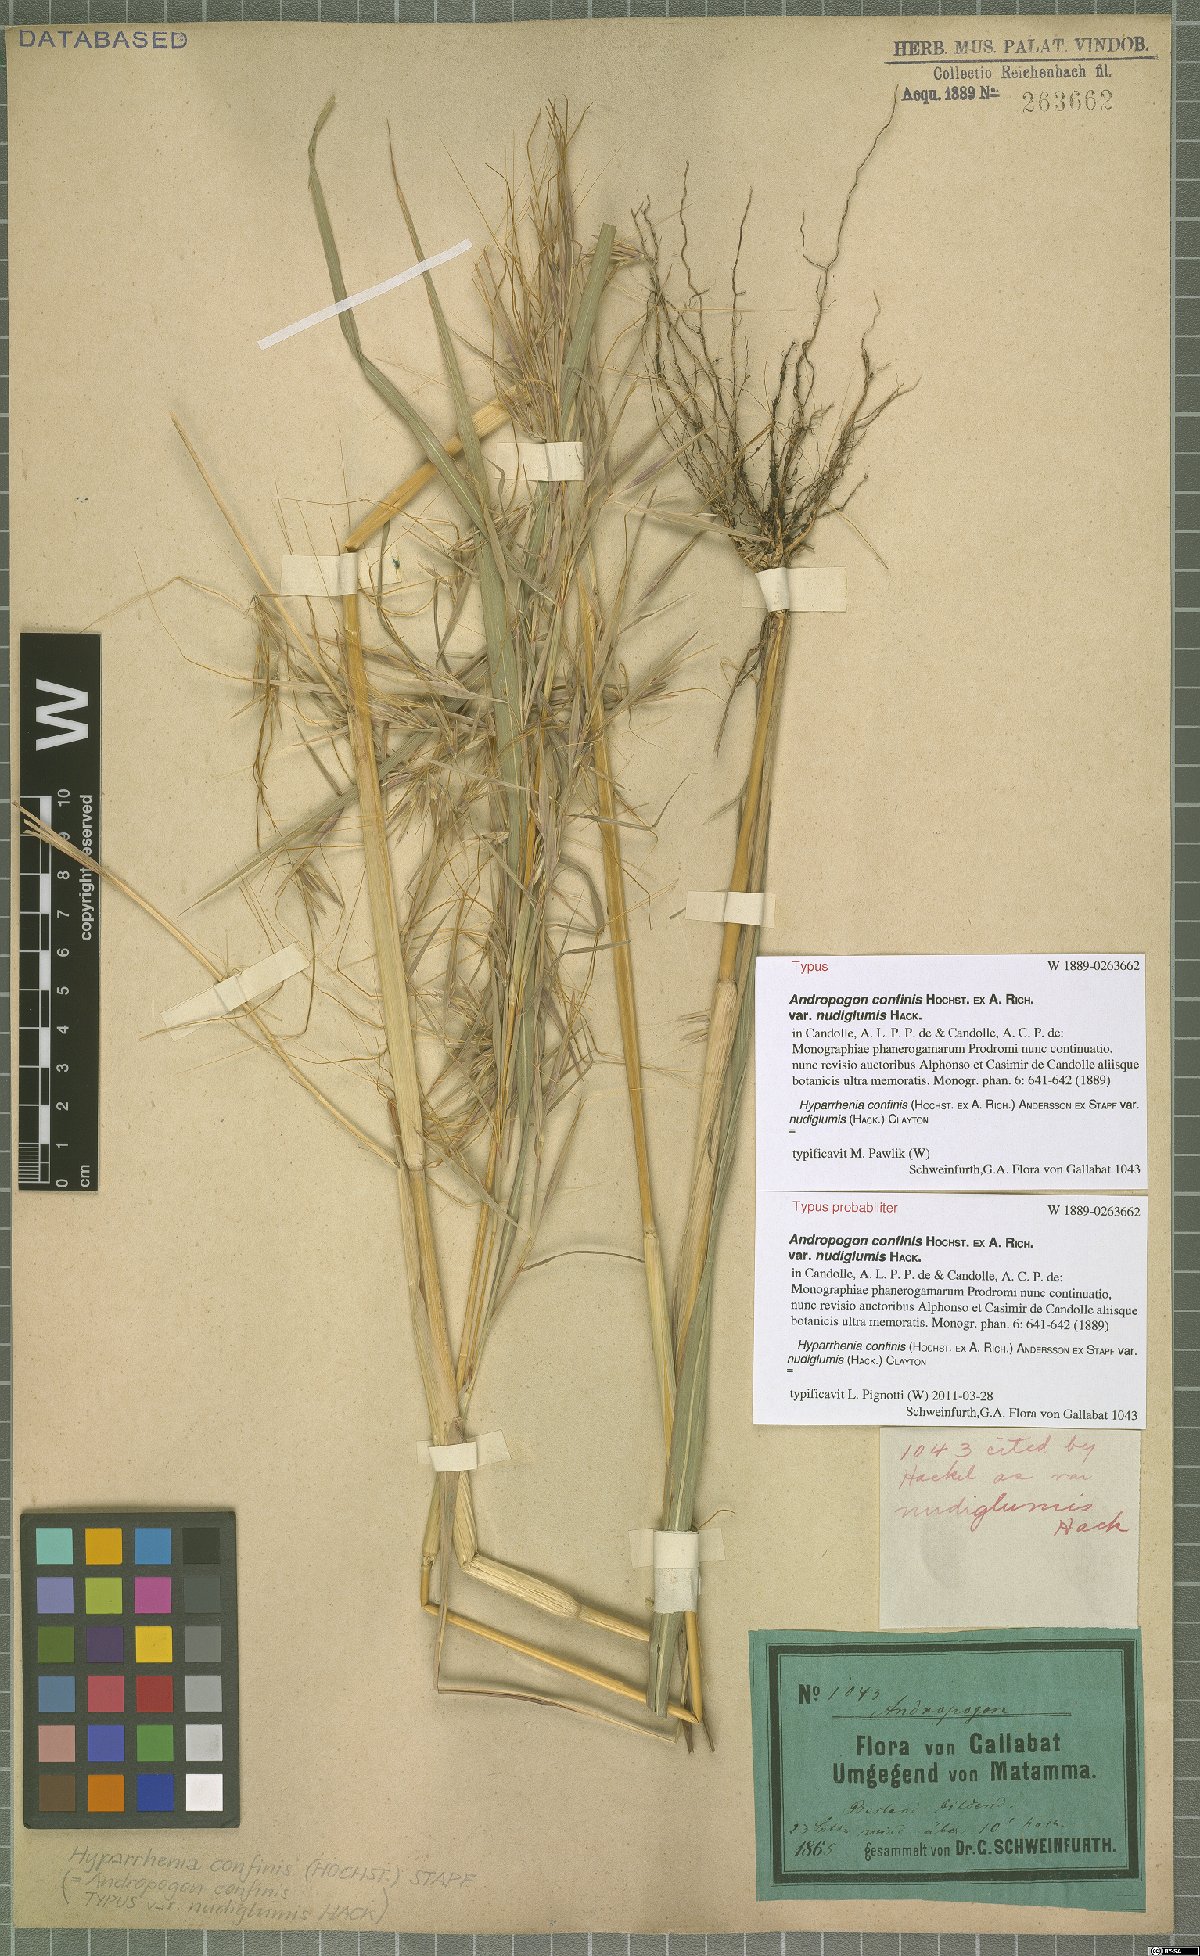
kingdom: Plantae
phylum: Tracheophyta
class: Liliopsida
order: Poales
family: Poaceae
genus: Hyparrhenia
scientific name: Hyparrhenia confinis
